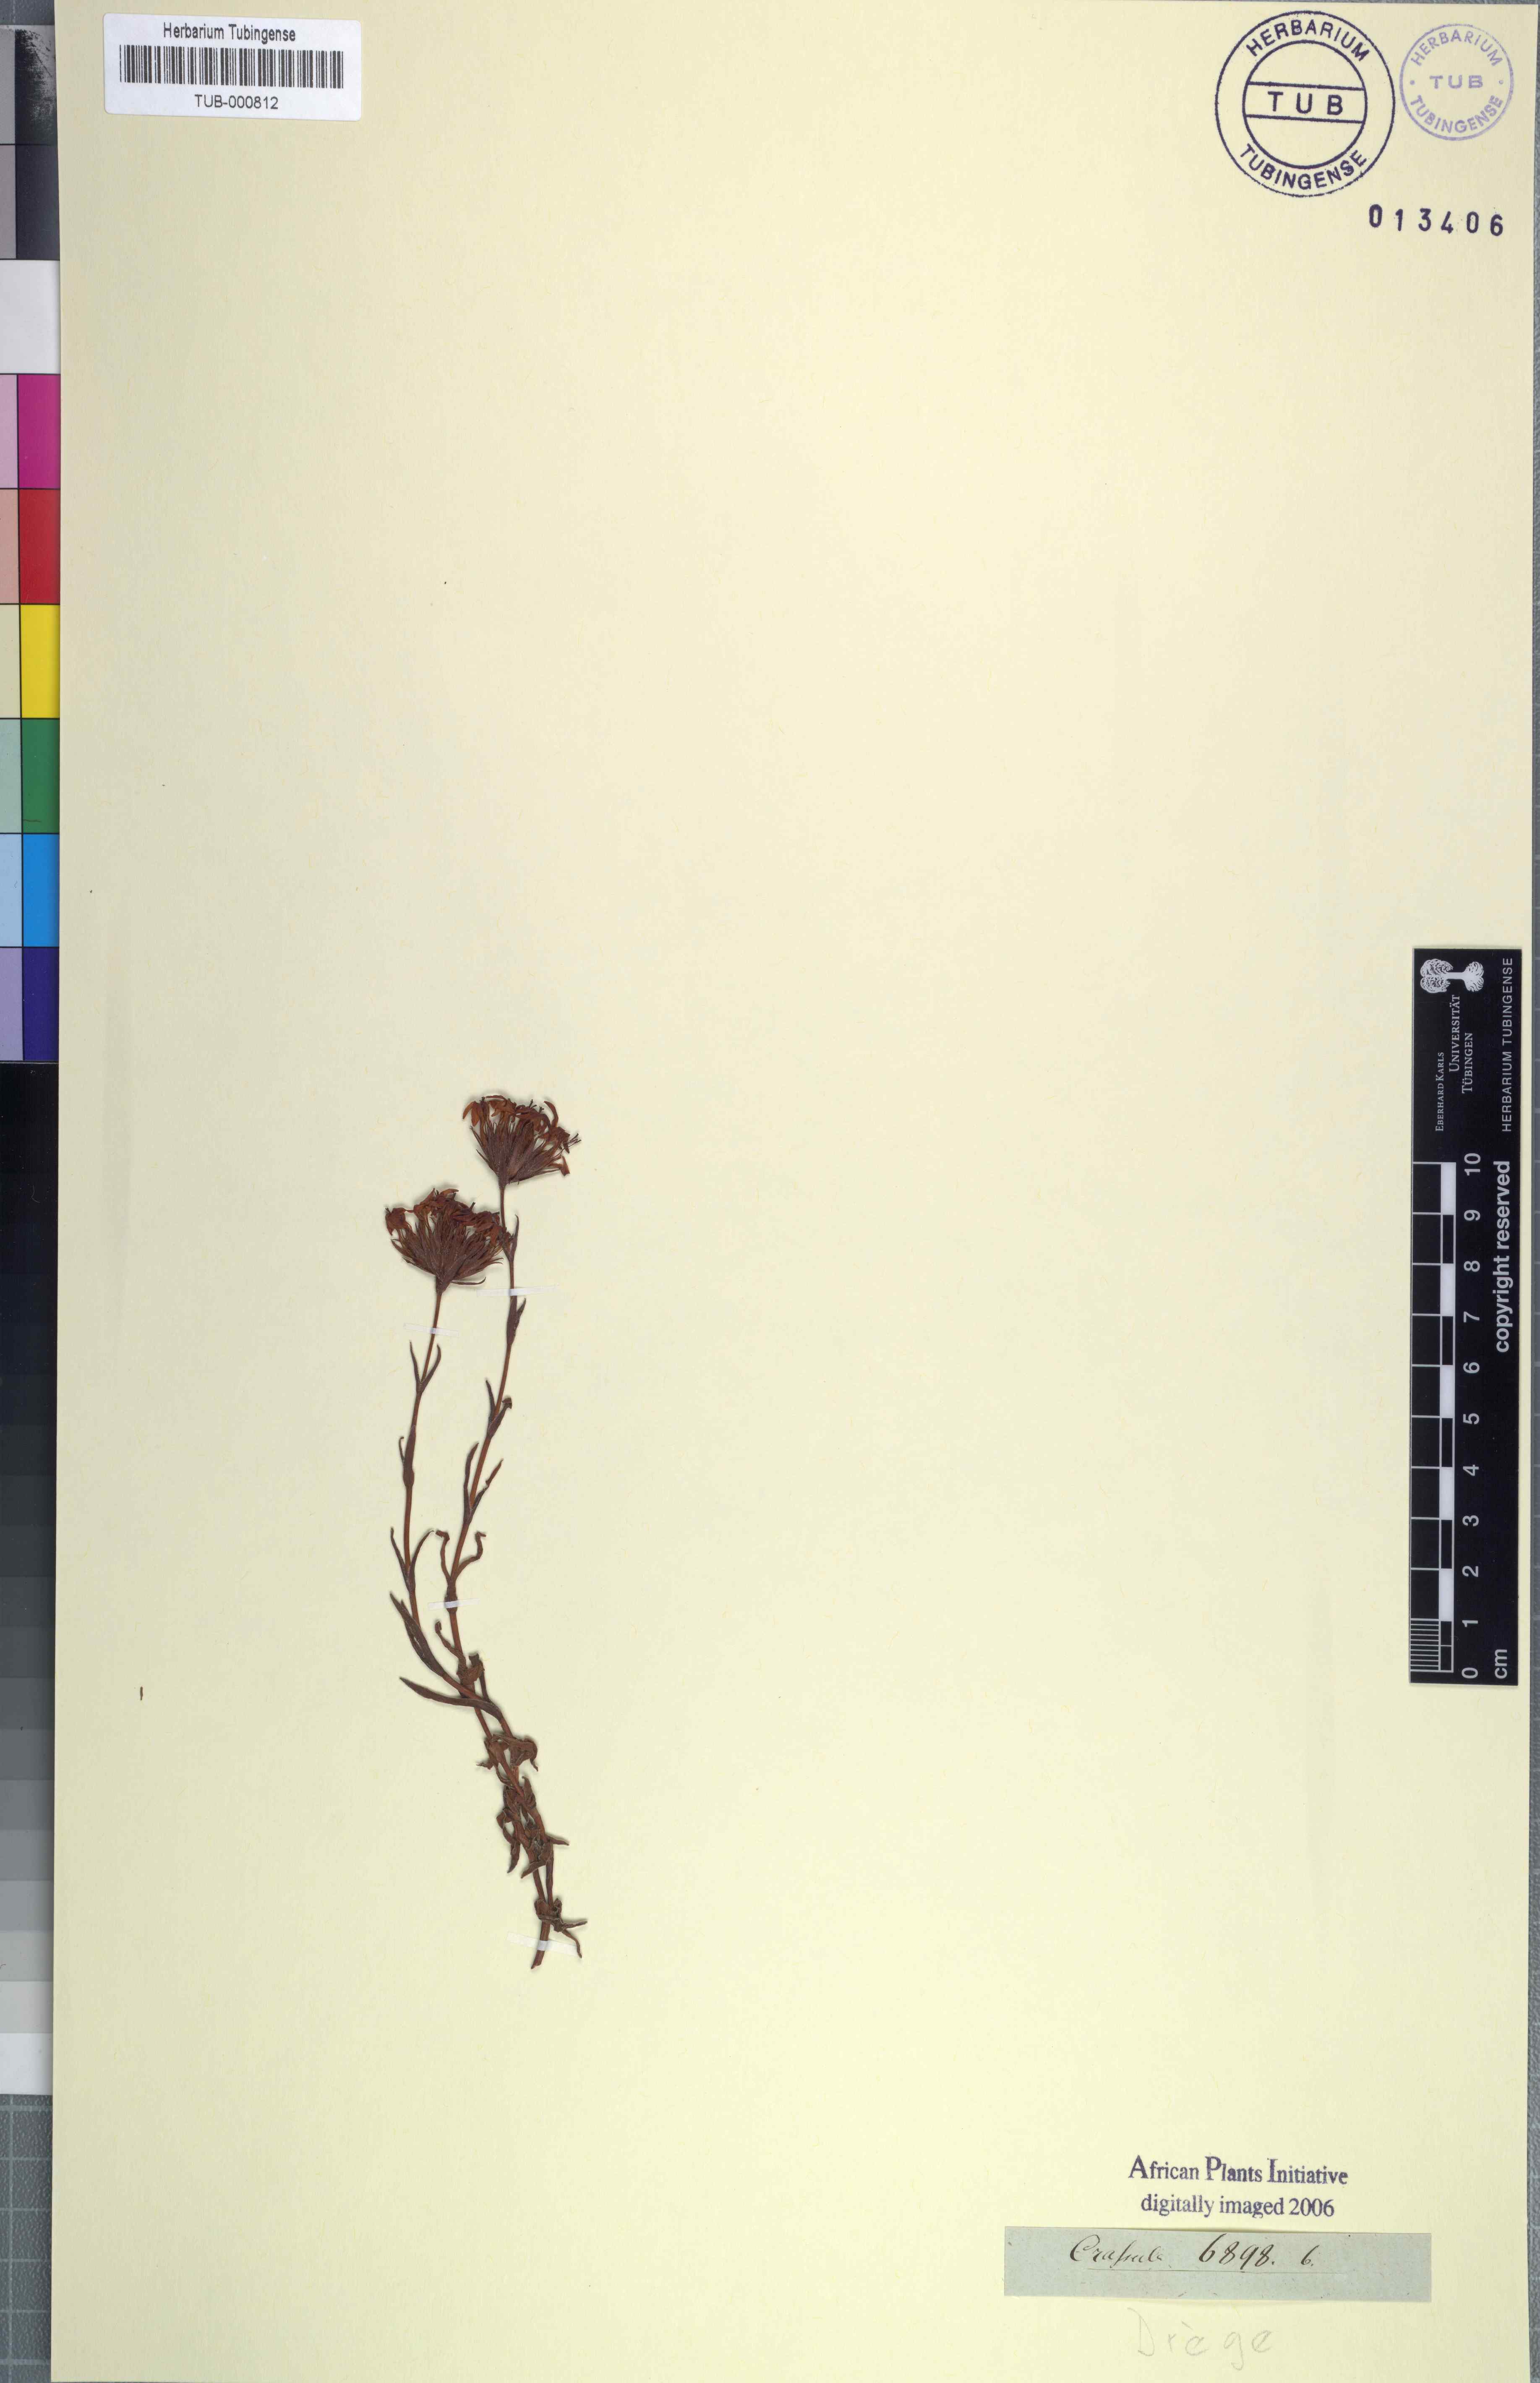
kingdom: Plantae
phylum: Tracheophyta
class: Magnoliopsida
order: Saxifragales
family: Crassulaceae
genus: Crassula
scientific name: Crassula
